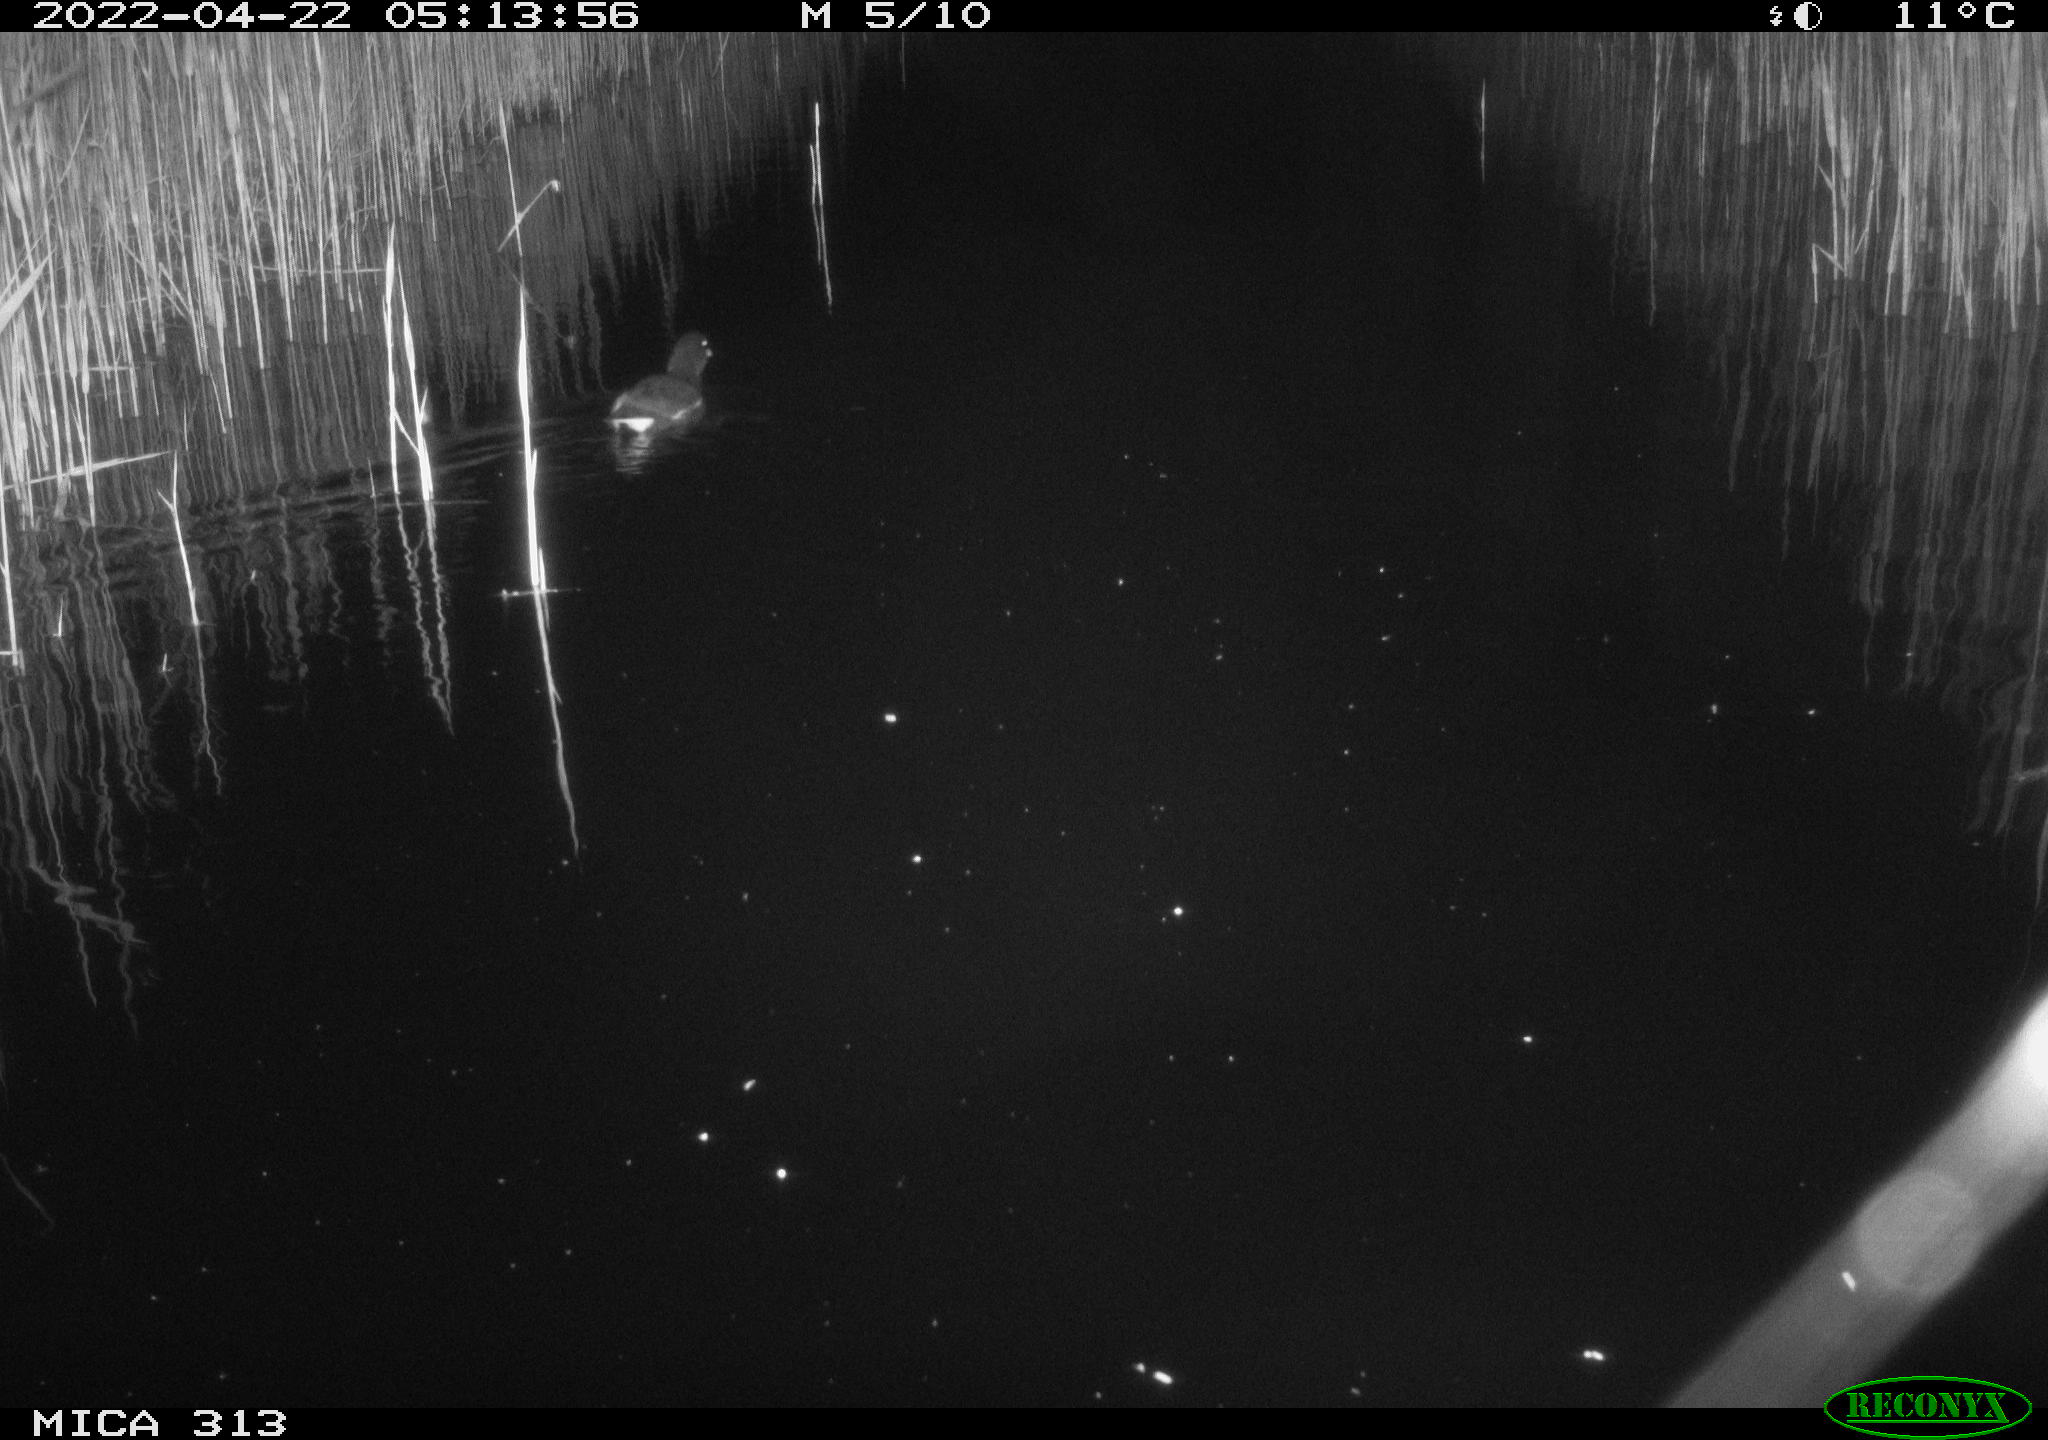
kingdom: Animalia
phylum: Chordata
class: Aves
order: Gruiformes
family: Rallidae
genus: Gallinula
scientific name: Gallinula chloropus
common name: Common moorhen
